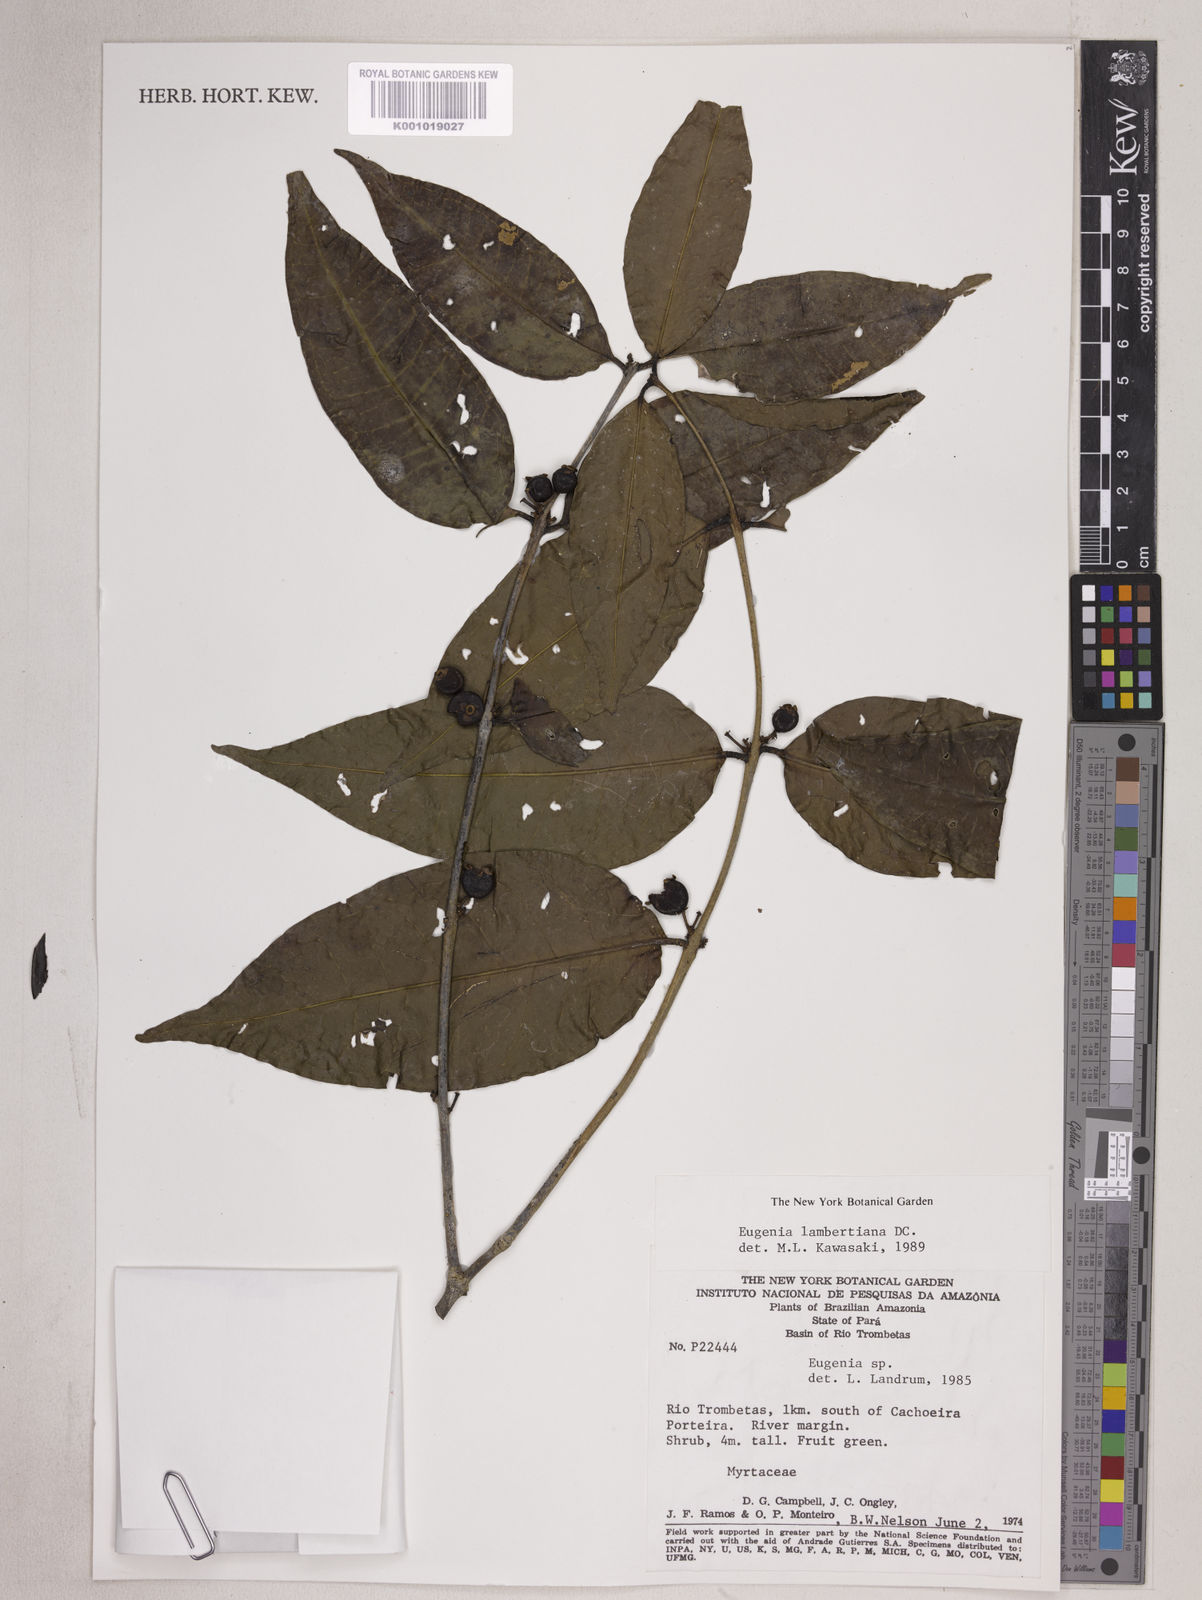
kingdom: Plantae
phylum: Tracheophyta
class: Magnoliopsida
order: Myrtales
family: Myrtaceae
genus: Eugenia
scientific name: Eugenia lambertiana
